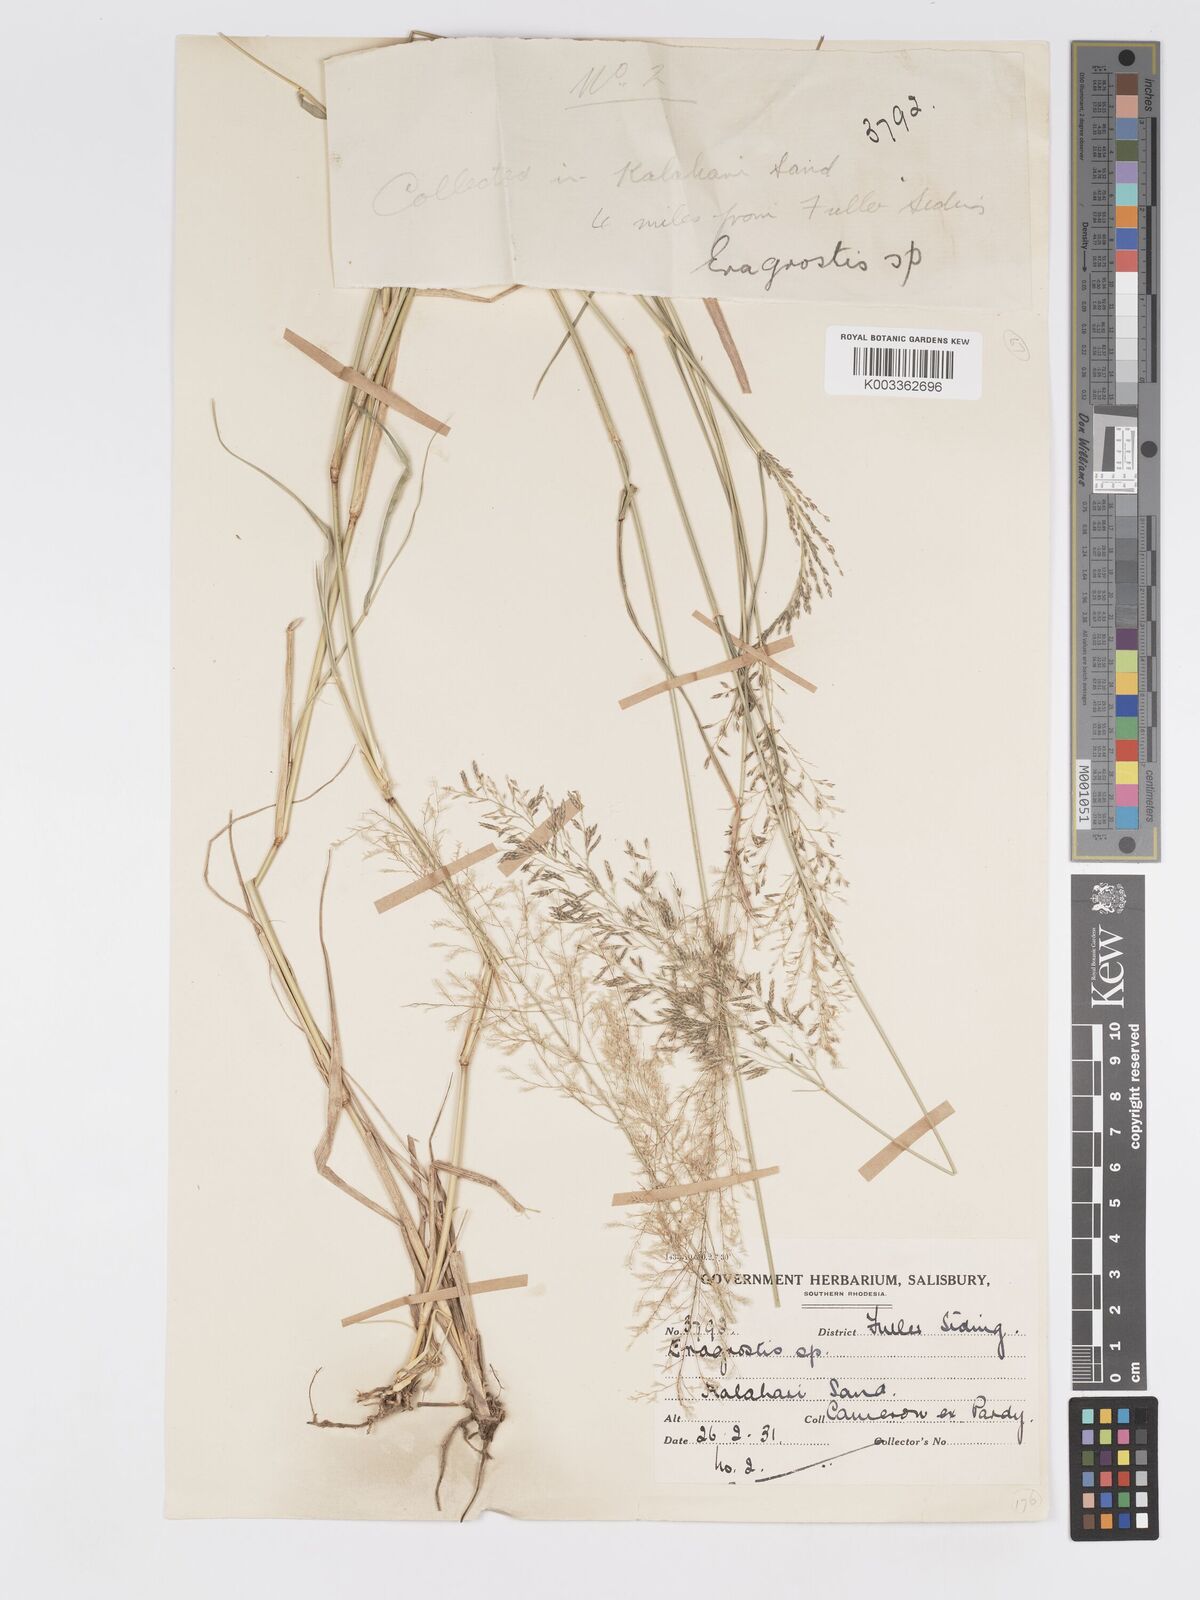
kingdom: Plantae
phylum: Tracheophyta
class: Liliopsida
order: Poales
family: Poaceae
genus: Eragrostis
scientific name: Eragrostis glandulosipedata
